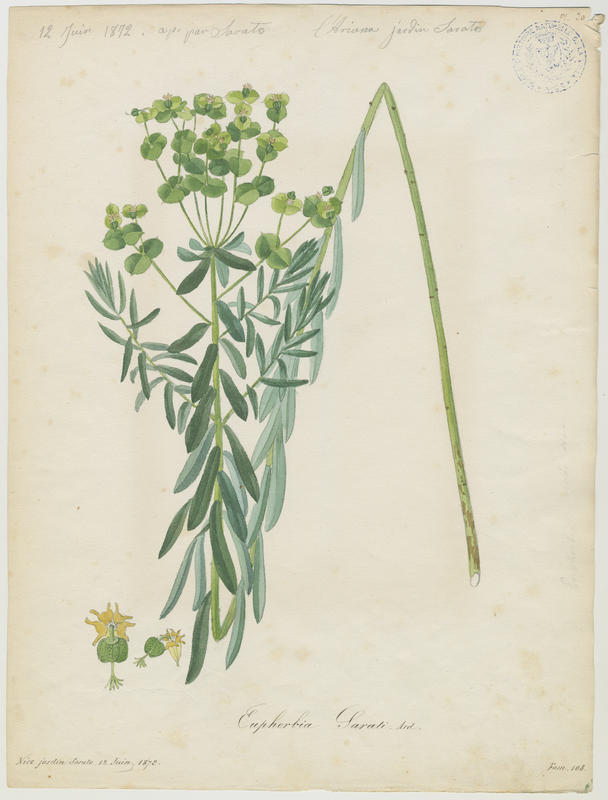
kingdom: Plantae
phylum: Tracheophyta
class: Magnoliopsida
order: Malpighiales
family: Euphorbiaceae
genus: Euphorbia
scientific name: Euphorbia saratoi
